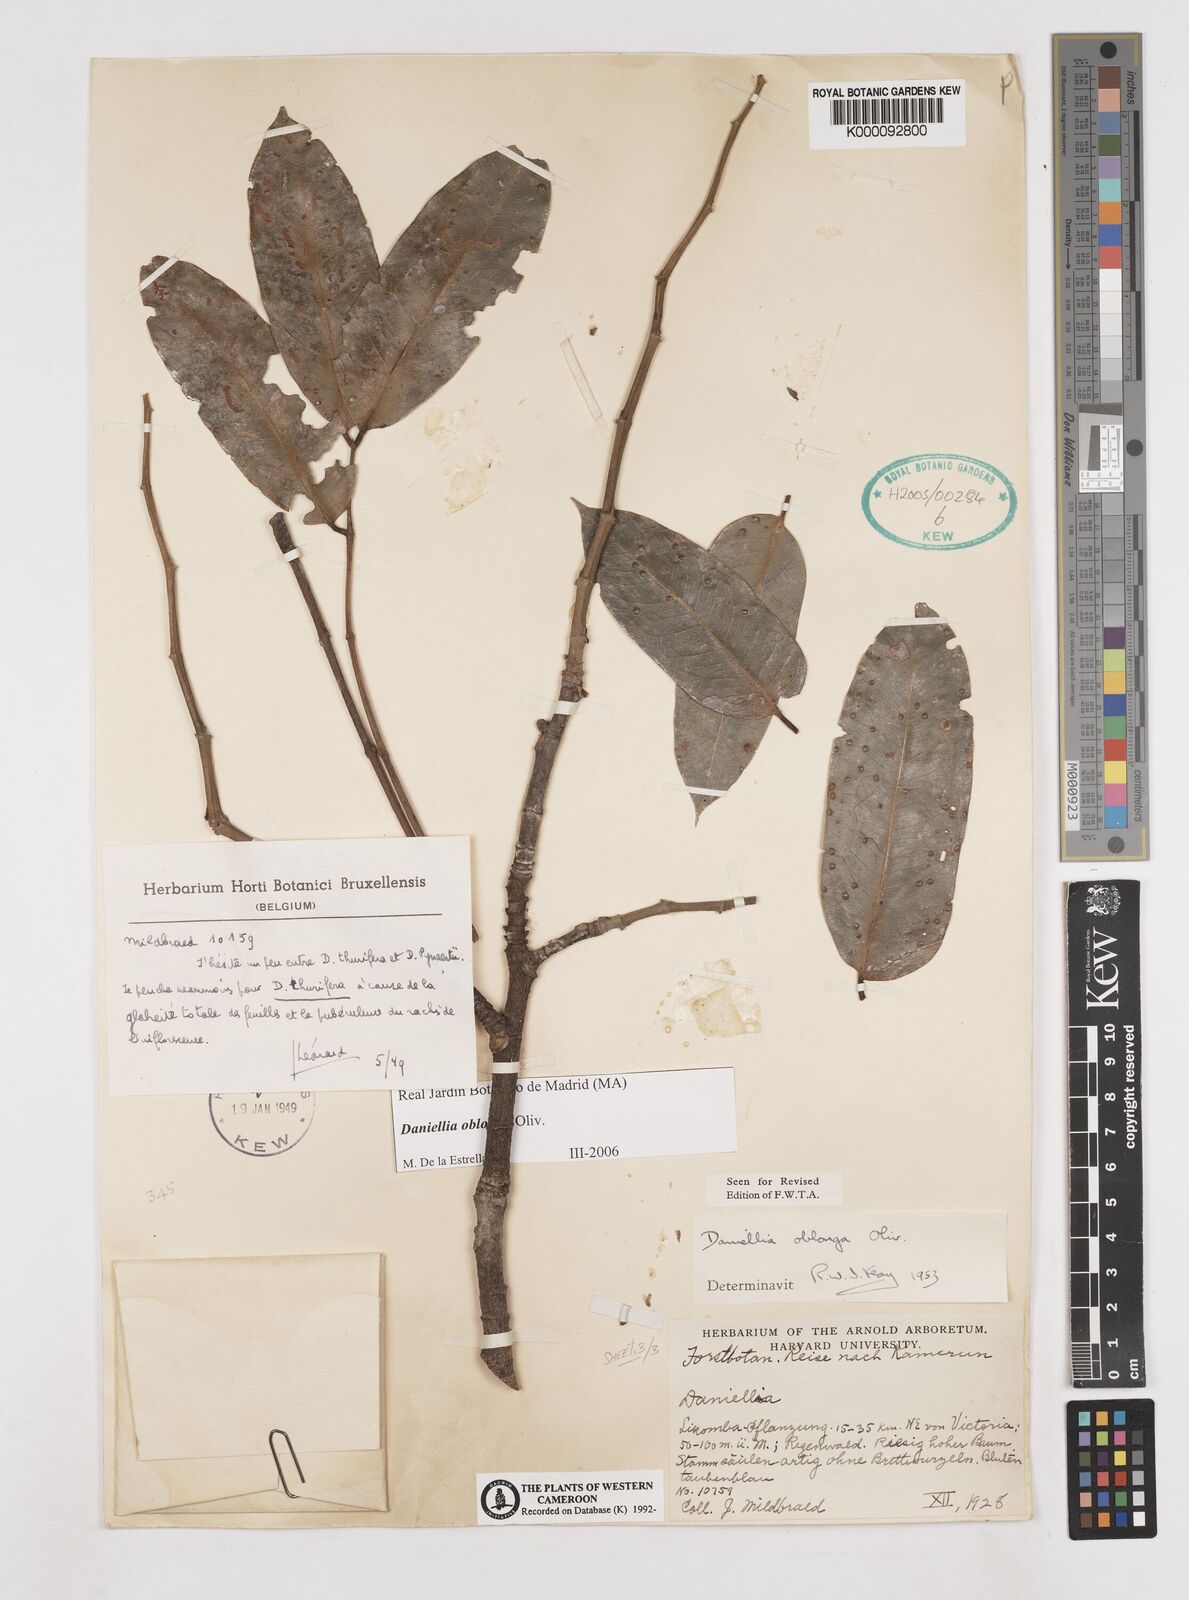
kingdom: Plantae
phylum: Tracheophyta
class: Magnoliopsida
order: Fabales
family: Fabaceae
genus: Daniellia
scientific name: Daniellia oblonga
